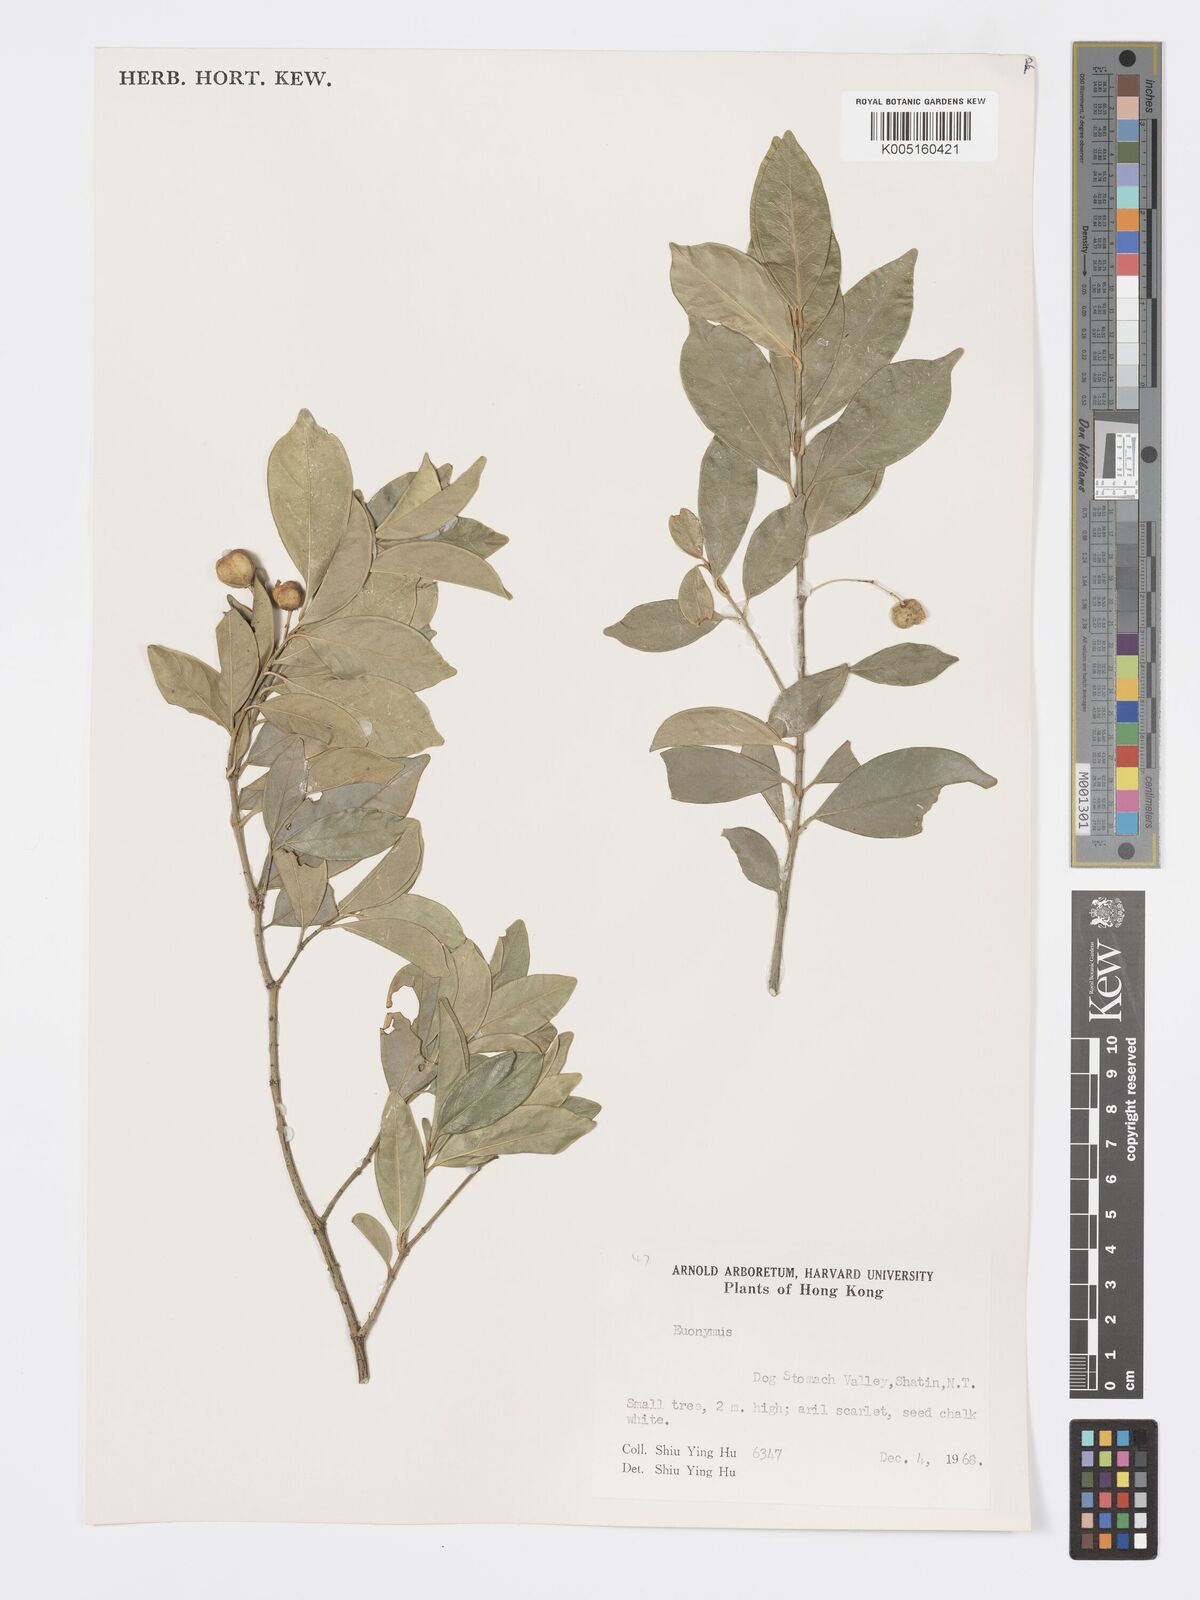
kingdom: Plantae
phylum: Tracheophyta
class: Magnoliopsida
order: Celastrales
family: Celastraceae
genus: Euonymus
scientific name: Euonymus
